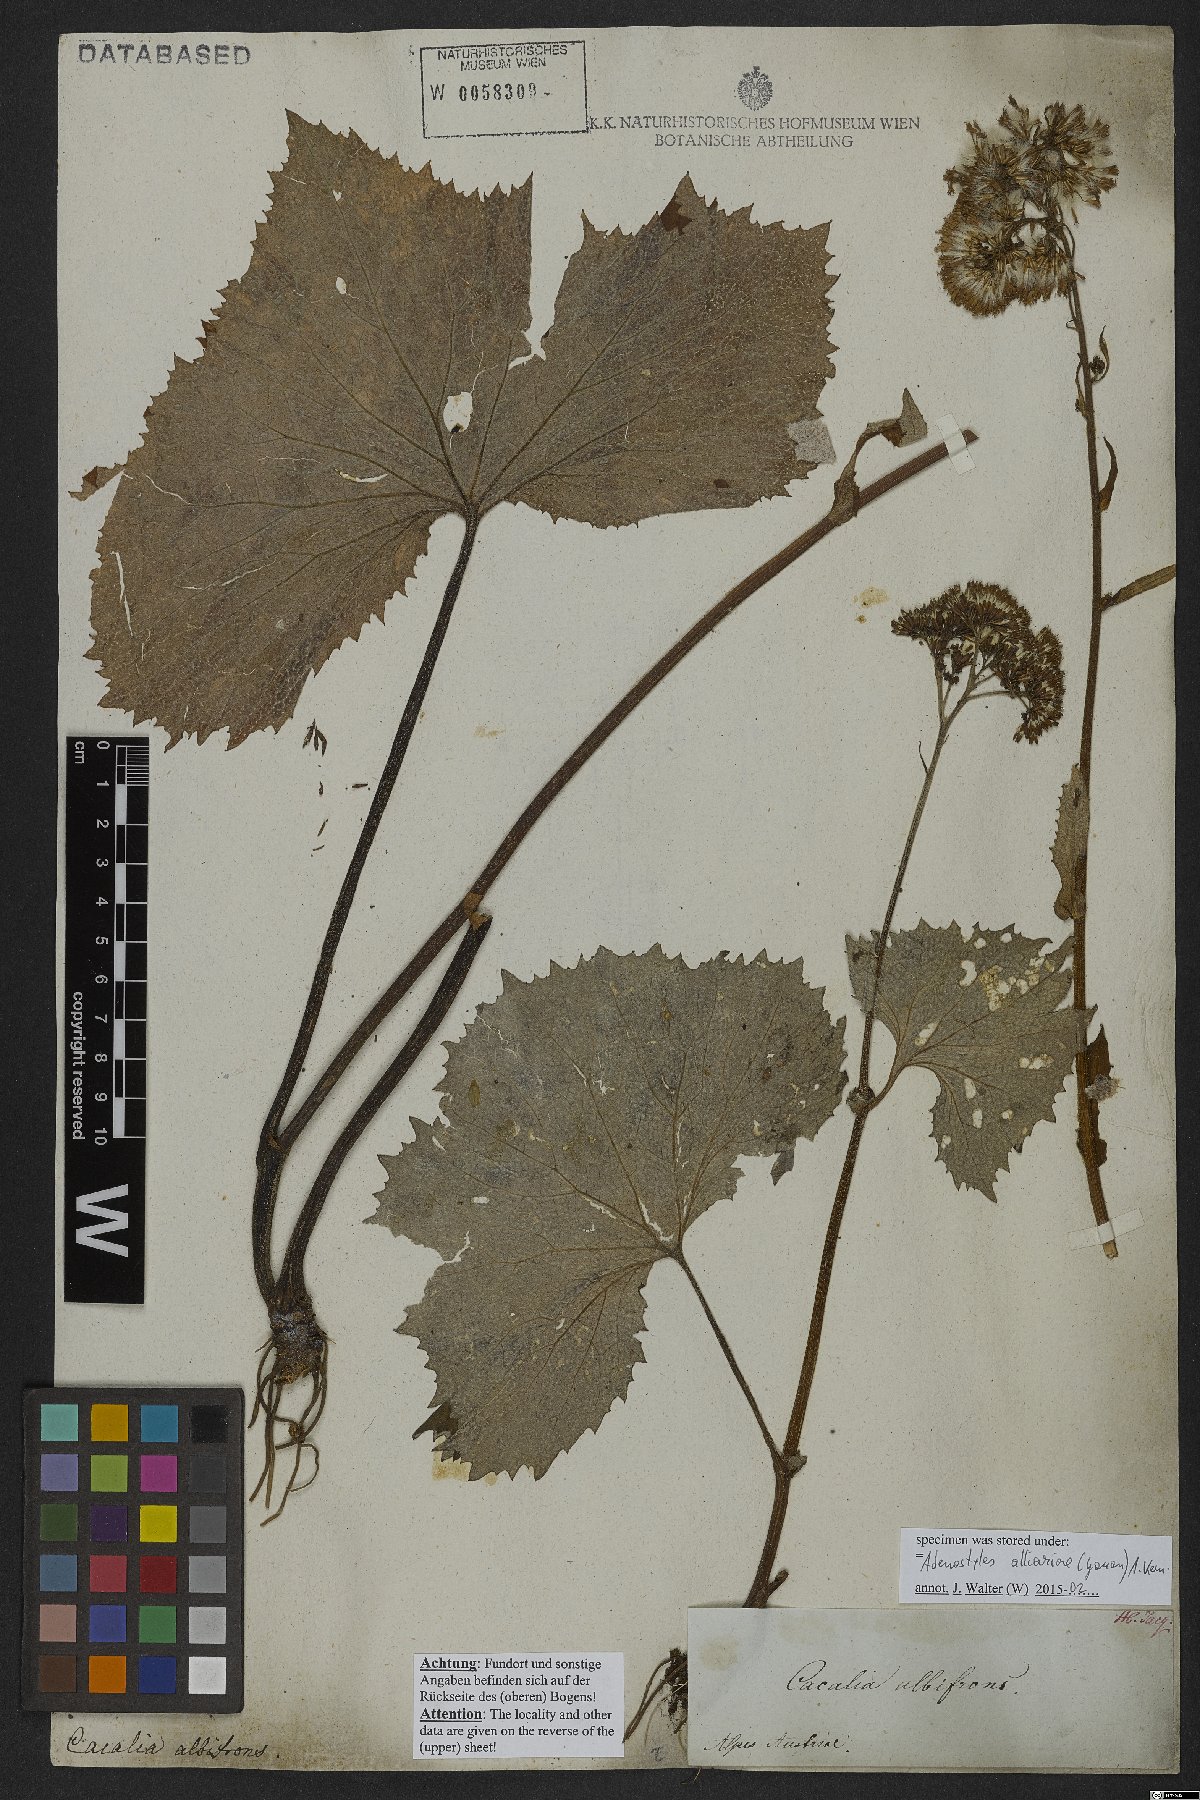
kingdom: Plantae
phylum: Tracheophyta
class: Magnoliopsida
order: Asterales
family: Asteraceae
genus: Adenostyles
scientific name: Adenostyles alliariae
